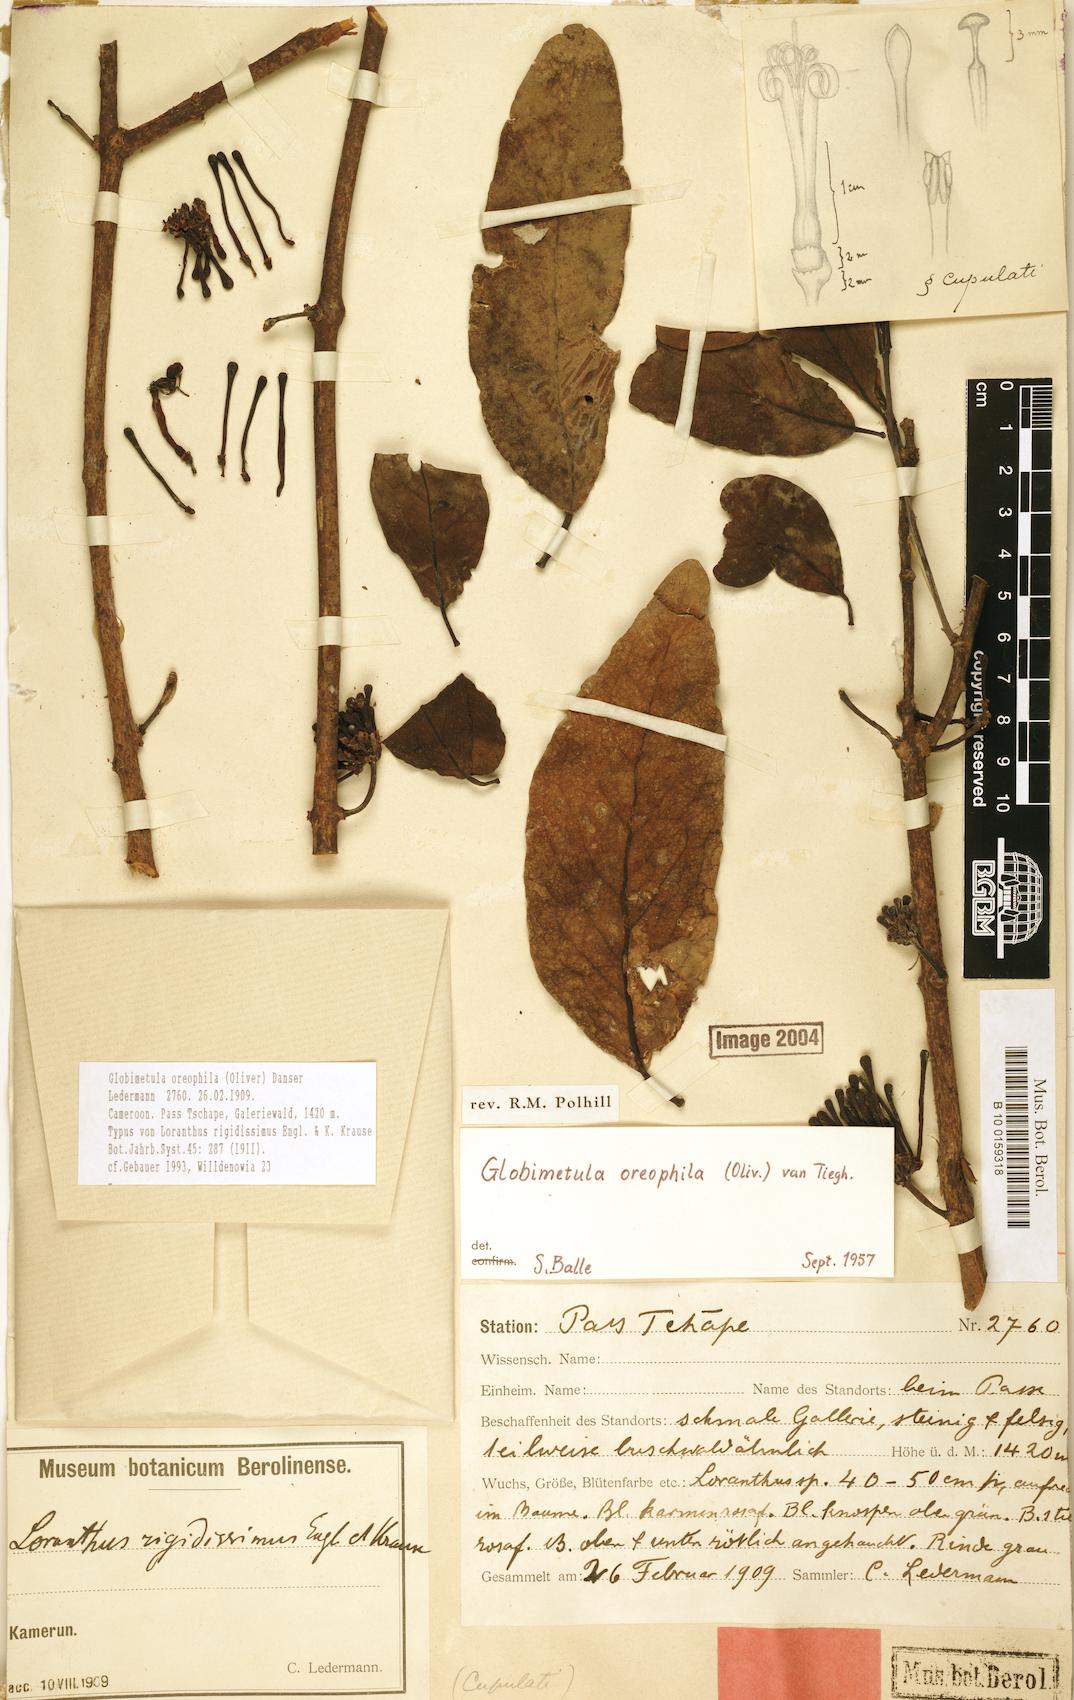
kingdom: Plantae
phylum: Tracheophyta
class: Magnoliopsida
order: Santalales
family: Loranthaceae
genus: Globimetula
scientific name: Globimetula oreophila
